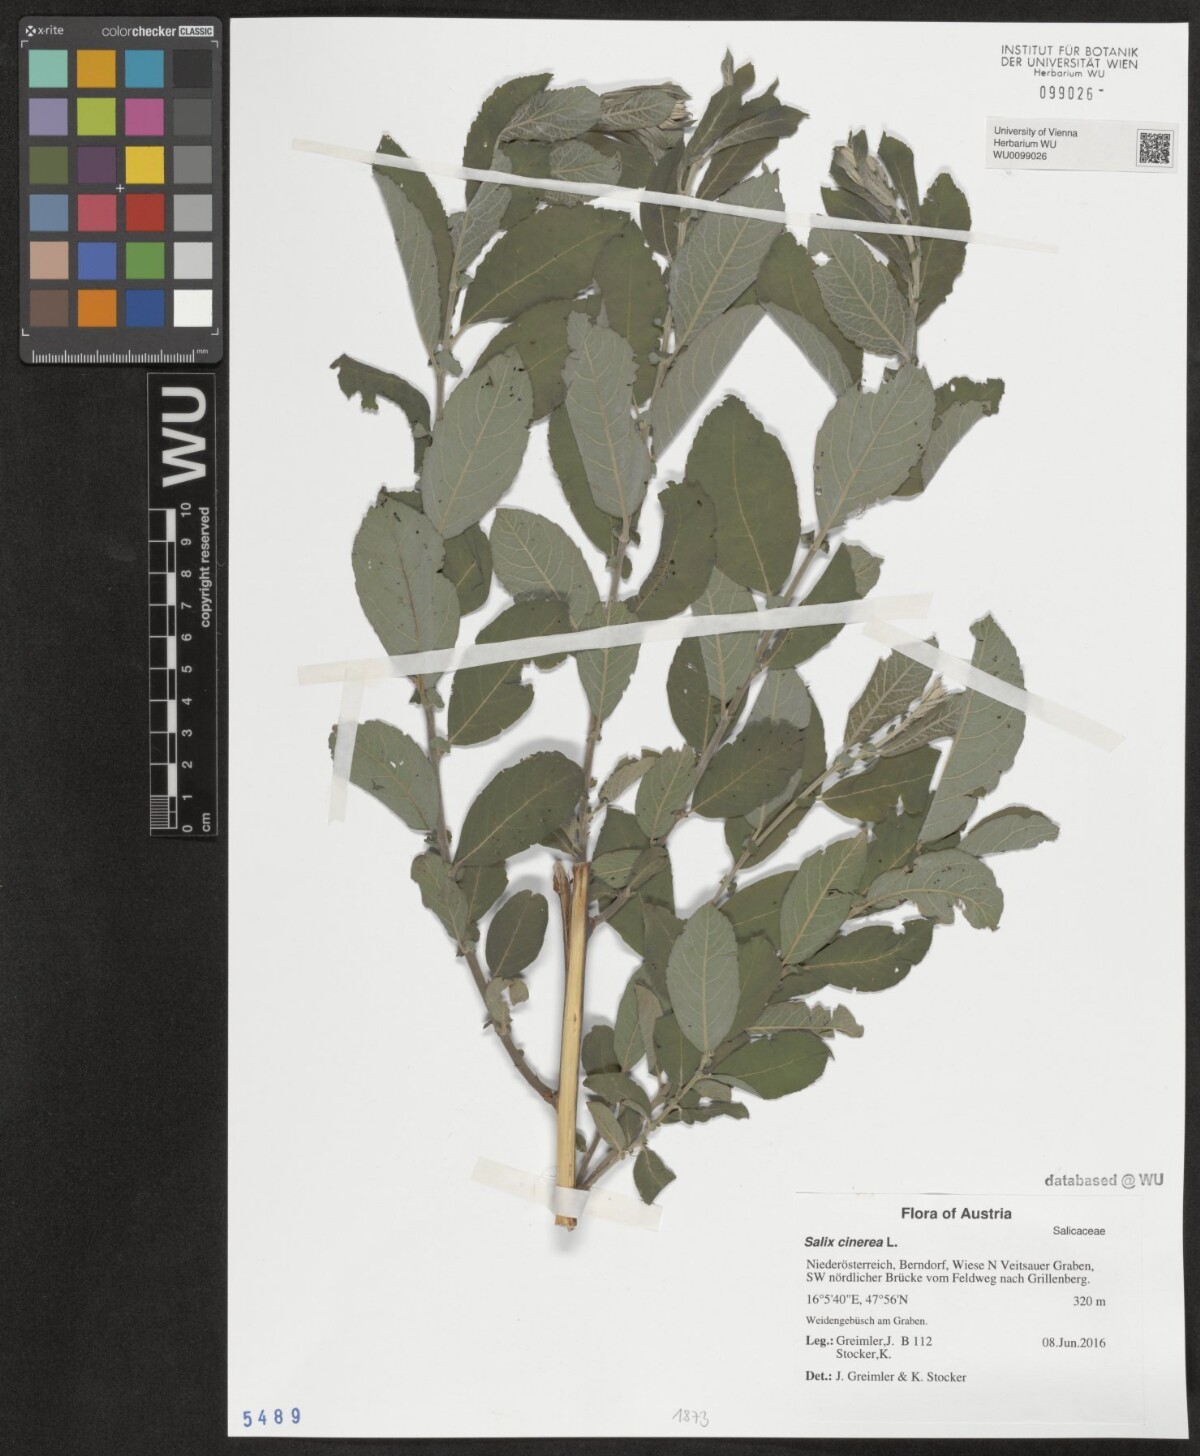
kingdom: Plantae
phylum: Tracheophyta
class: Magnoliopsida
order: Malpighiales
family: Salicaceae
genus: Salix
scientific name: Salix cinerea
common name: Common sallow
